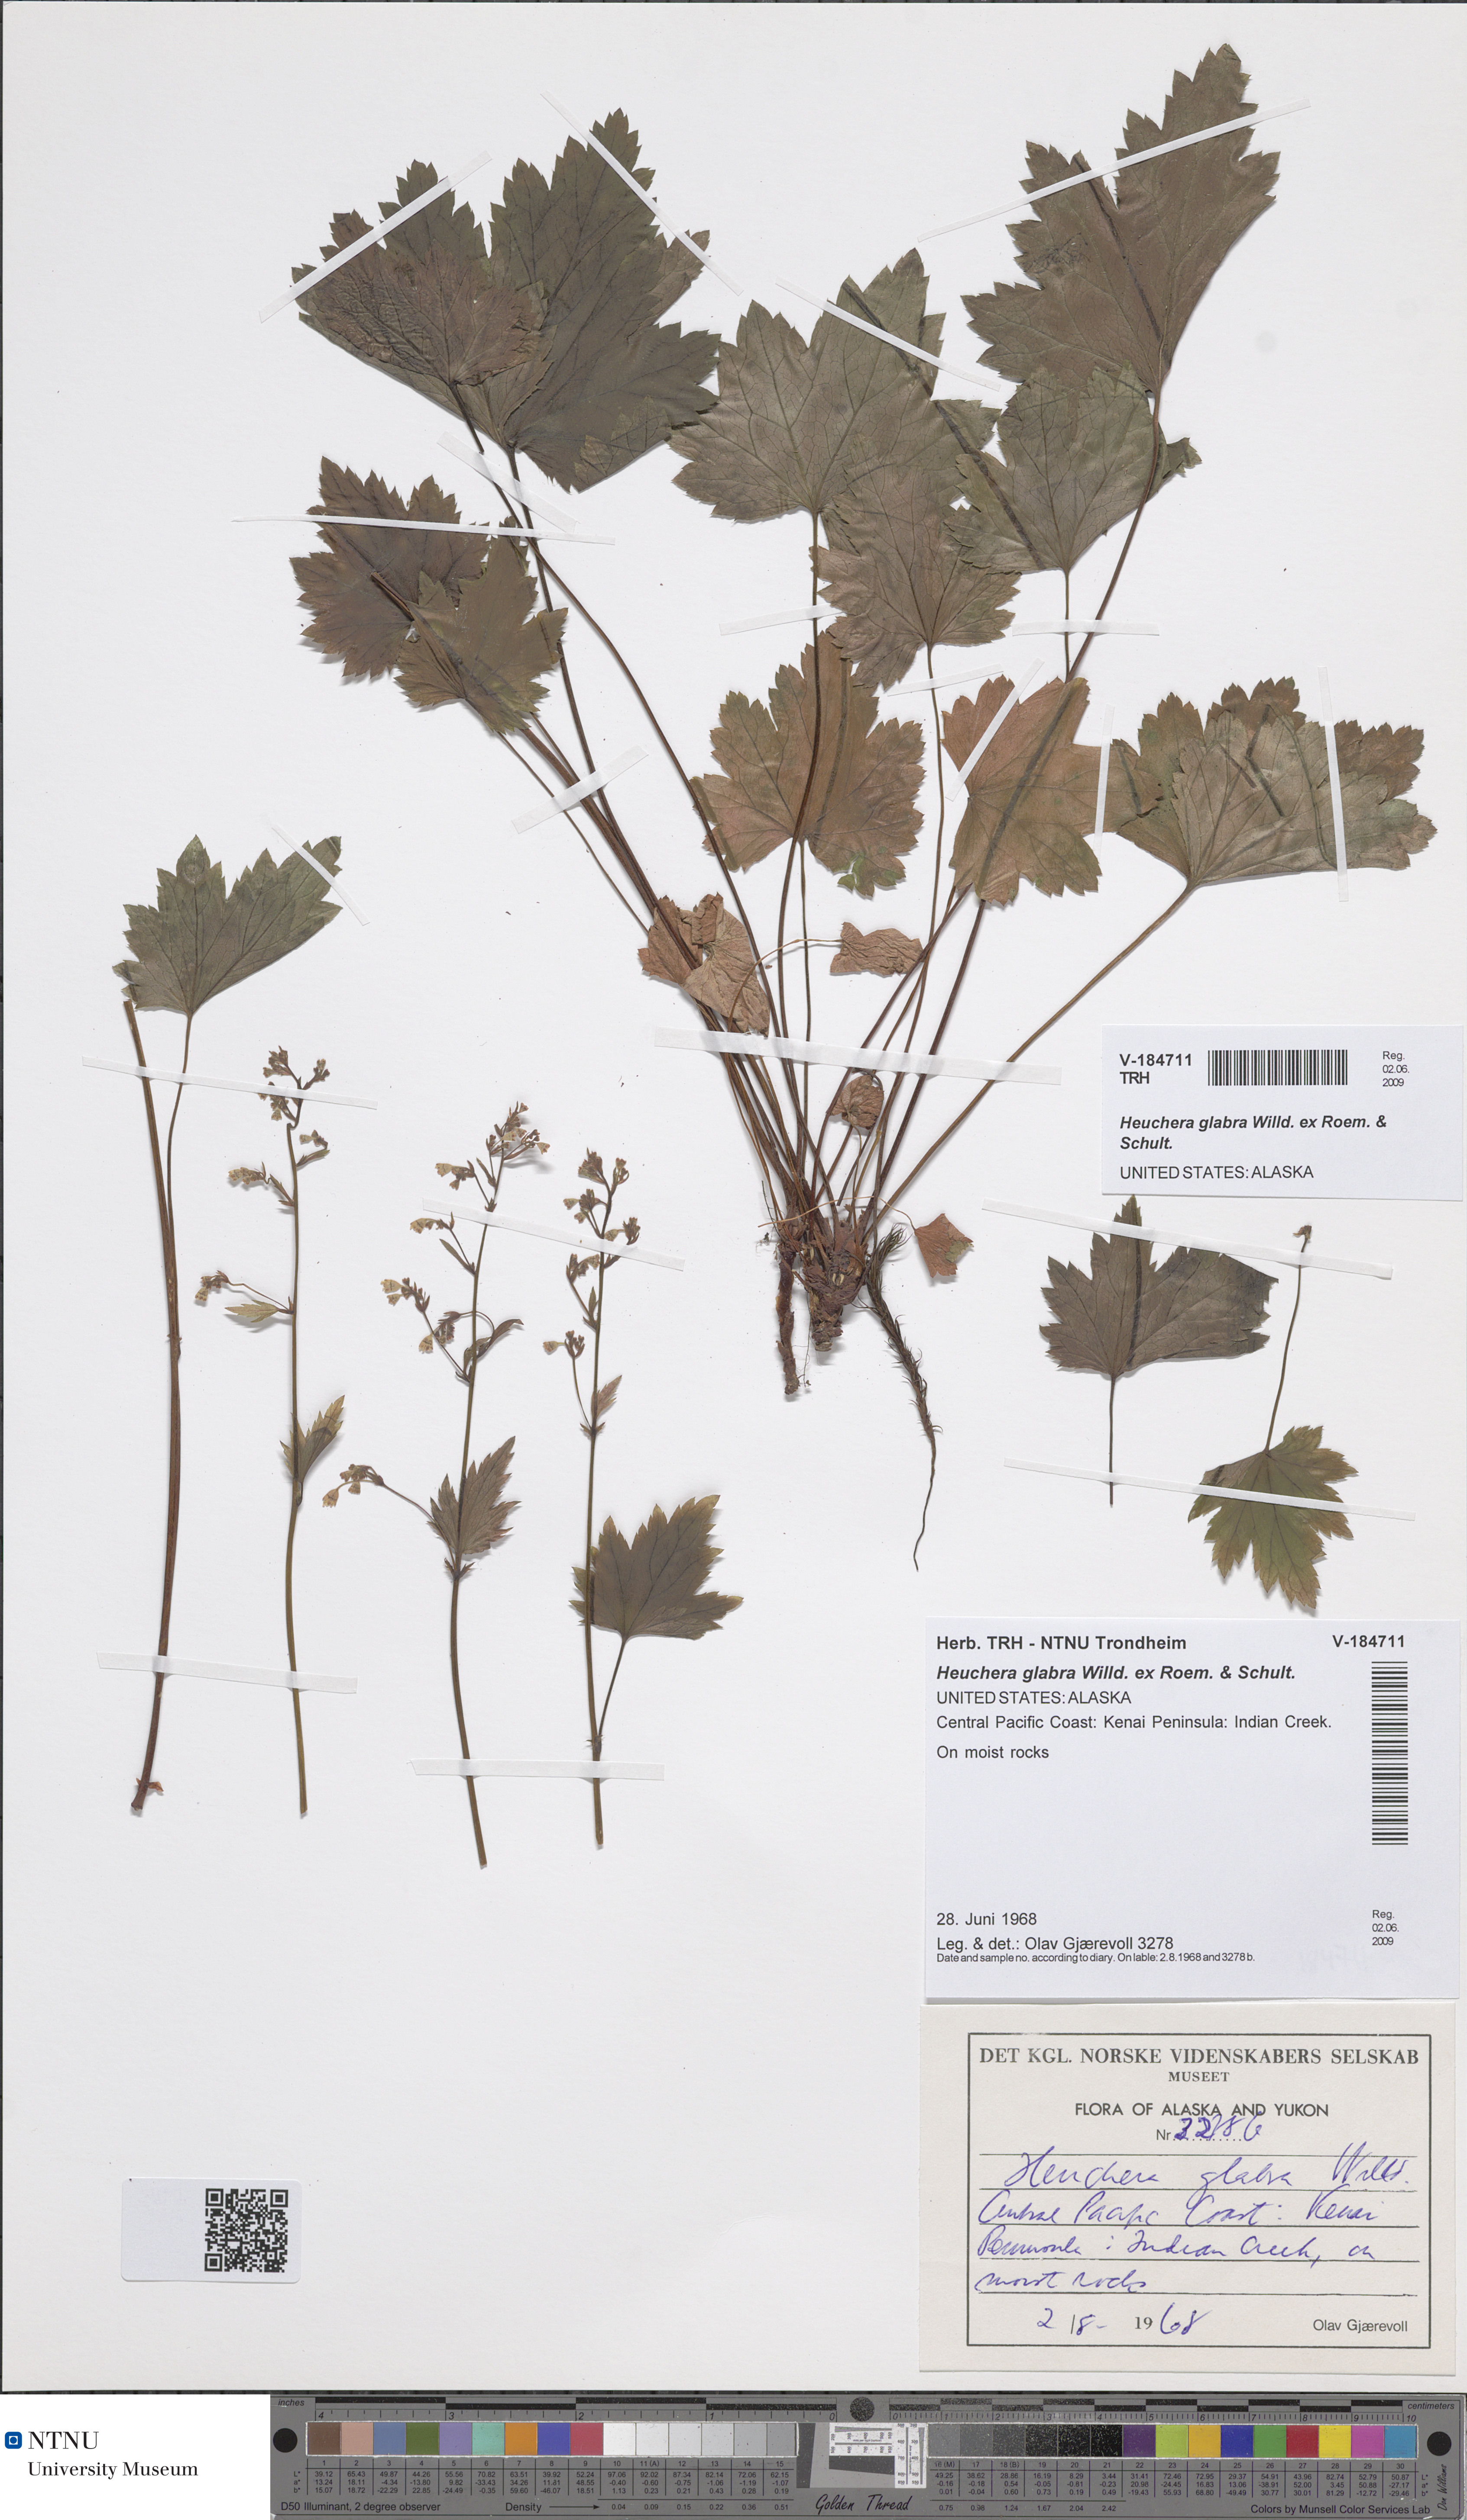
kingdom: Plantae
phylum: Tracheophyta
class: Magnoliopsida
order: Saxifragales
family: Saxifragaceae
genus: Heuchera
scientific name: Heuchera glabra
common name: Alpine alumroot
